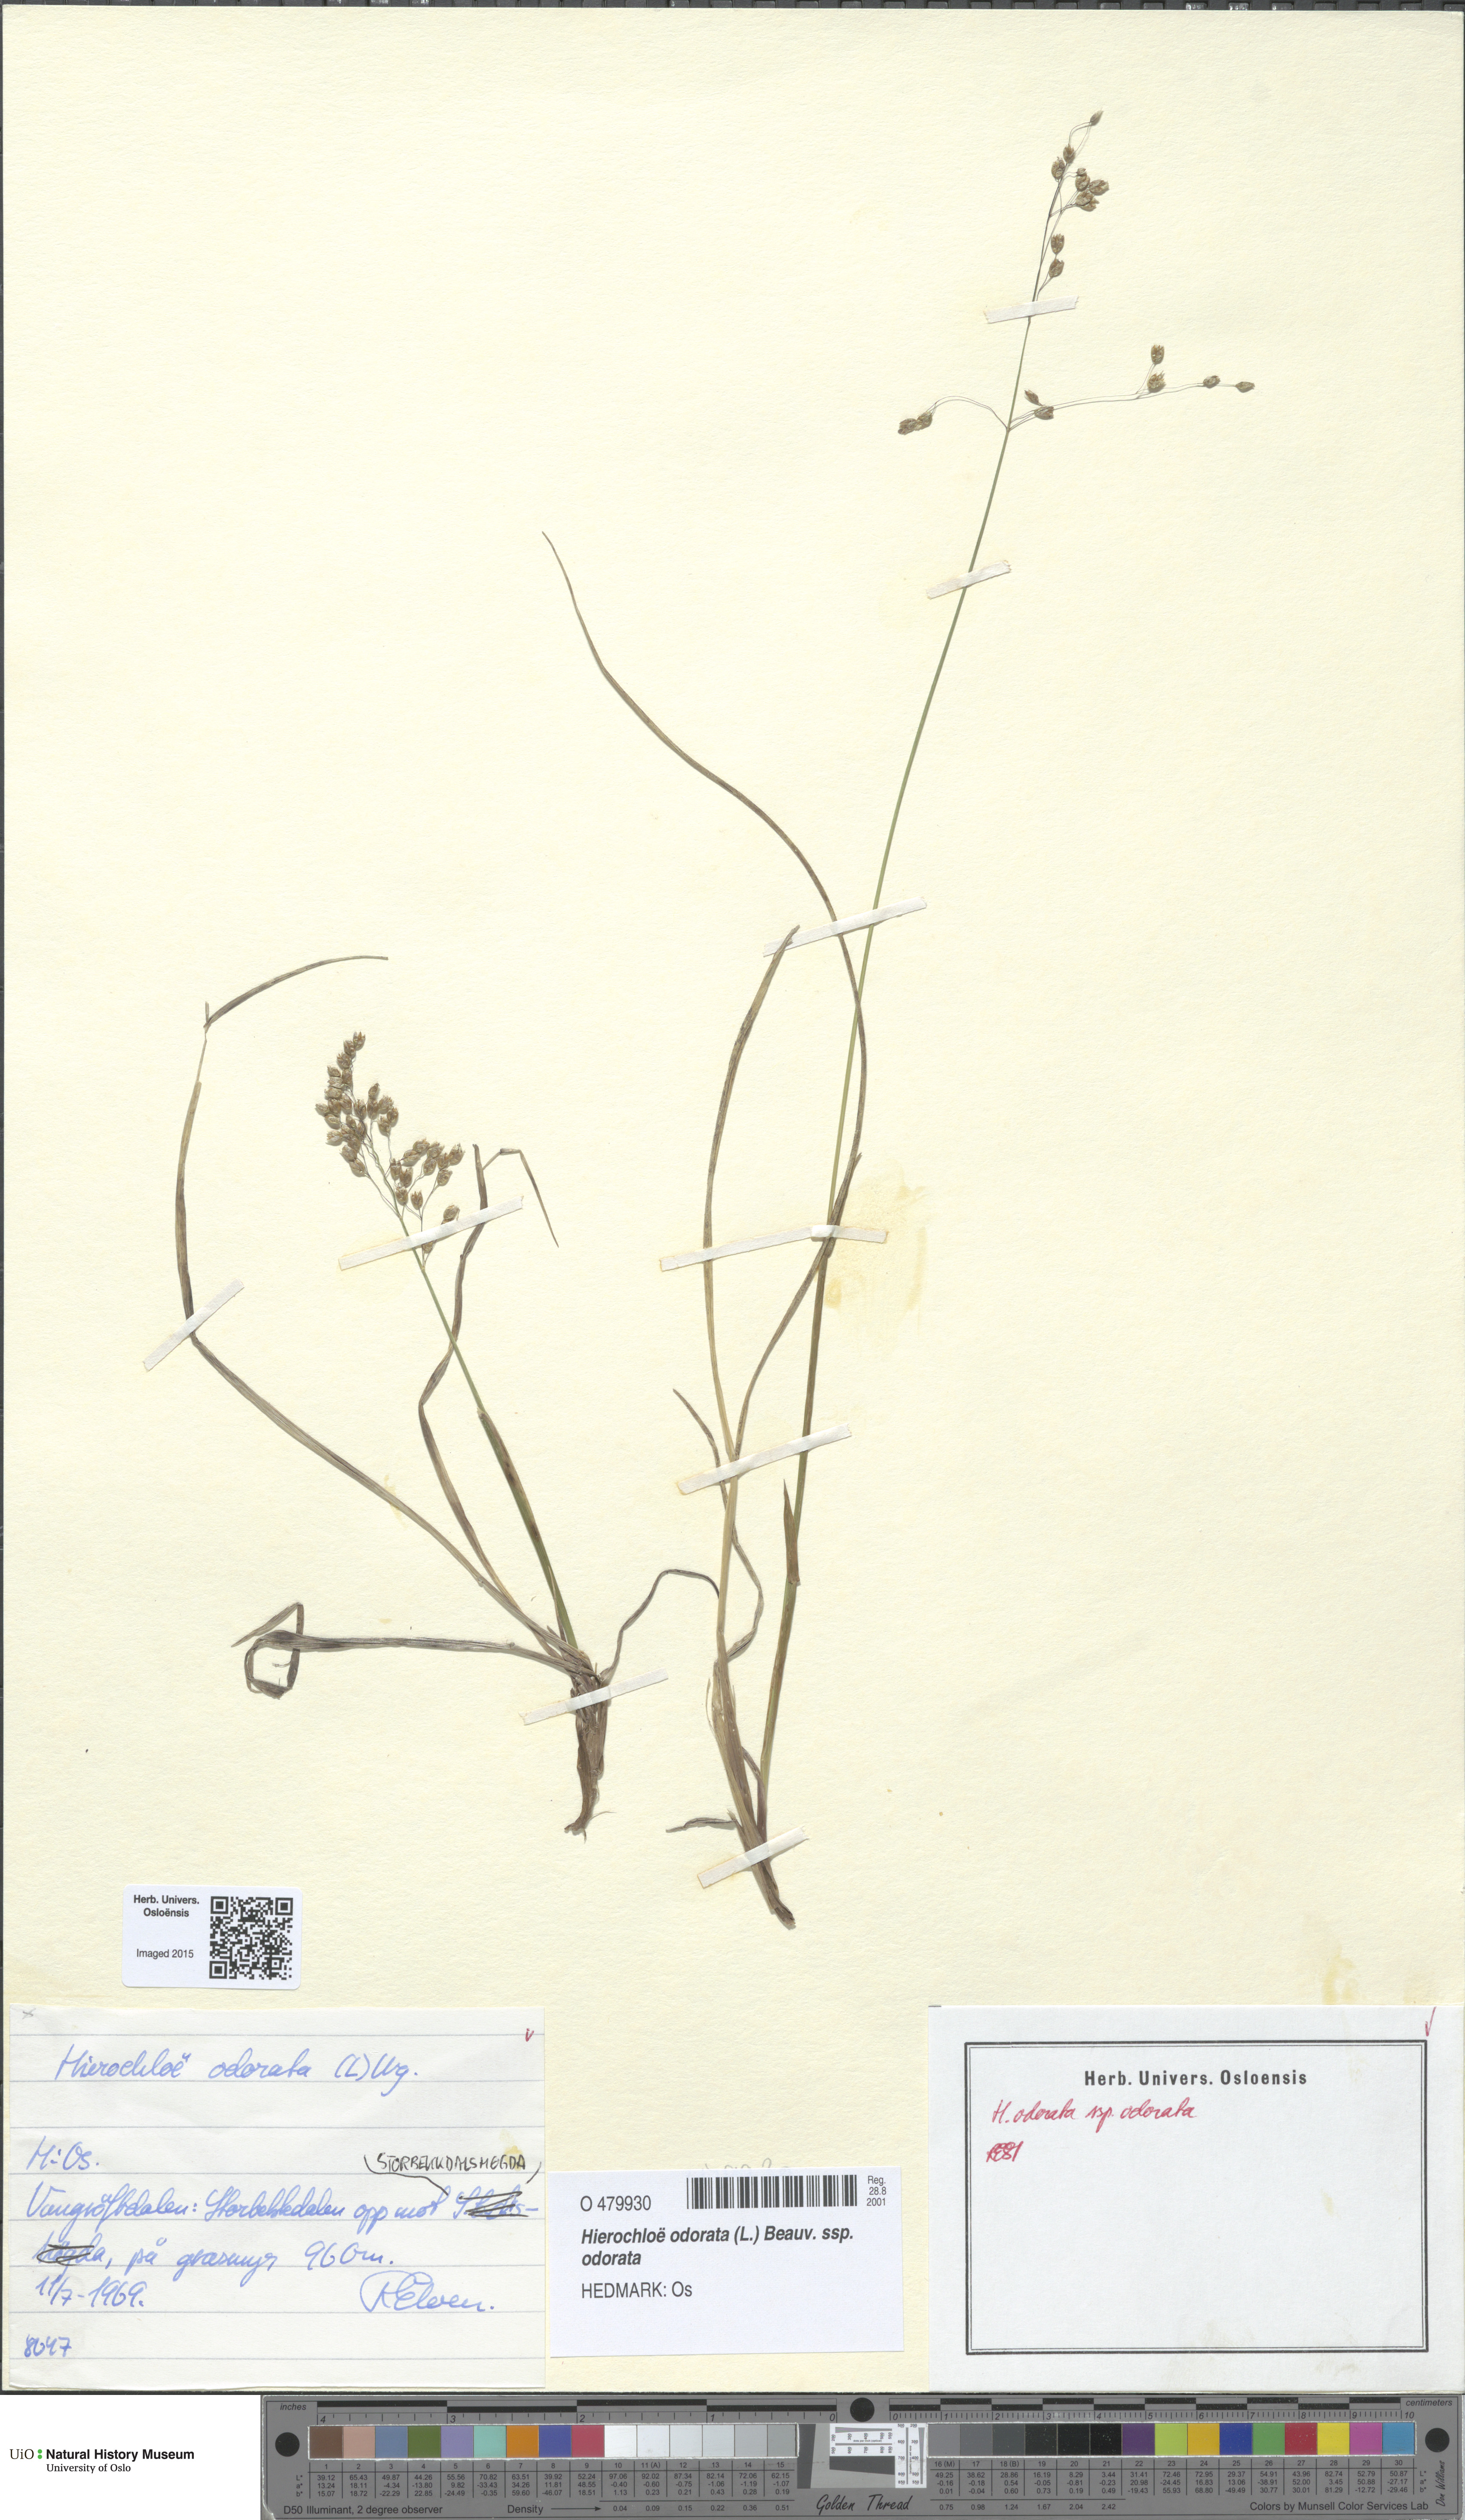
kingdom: Plantae
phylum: Tracheophyta
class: Liliopsida
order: Poales
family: Poaceae
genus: Anthoxanthum
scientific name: Anthoxanthum nitens
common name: Holy grass
